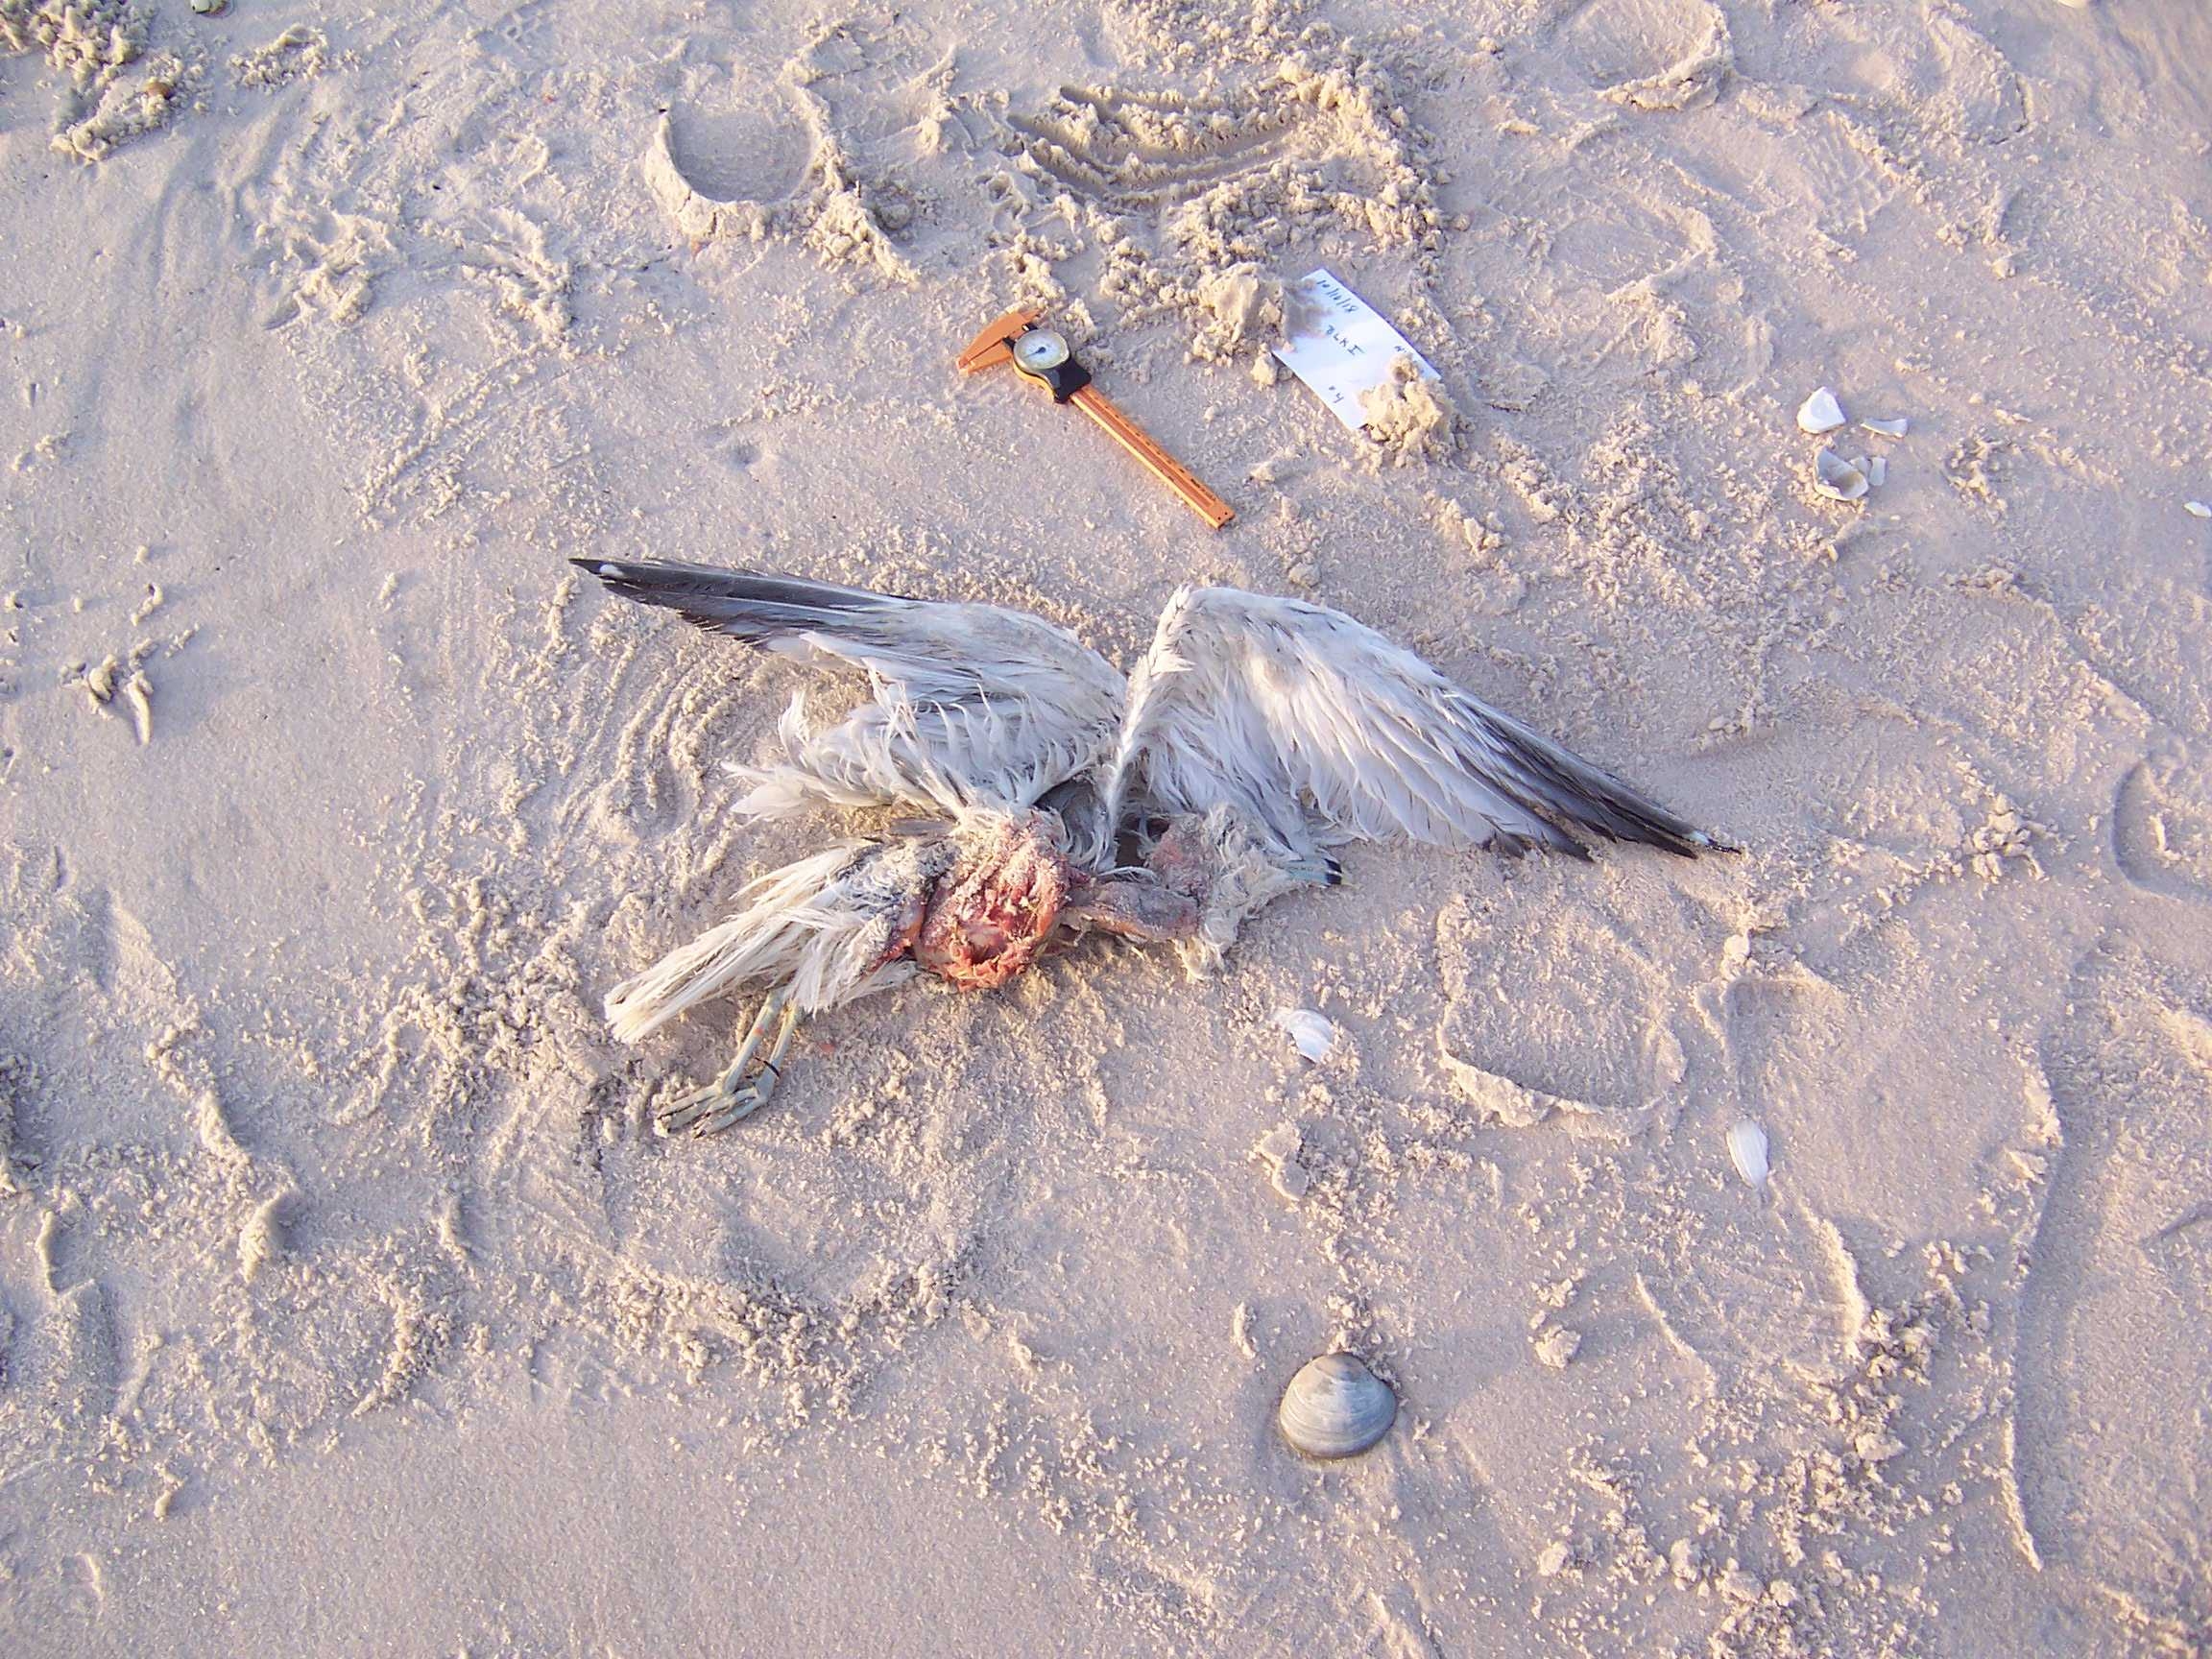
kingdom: Animalia
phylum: Chordata
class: Aves
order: Charadriiformes
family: Laridae
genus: Larus
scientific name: Larus delawarensis
